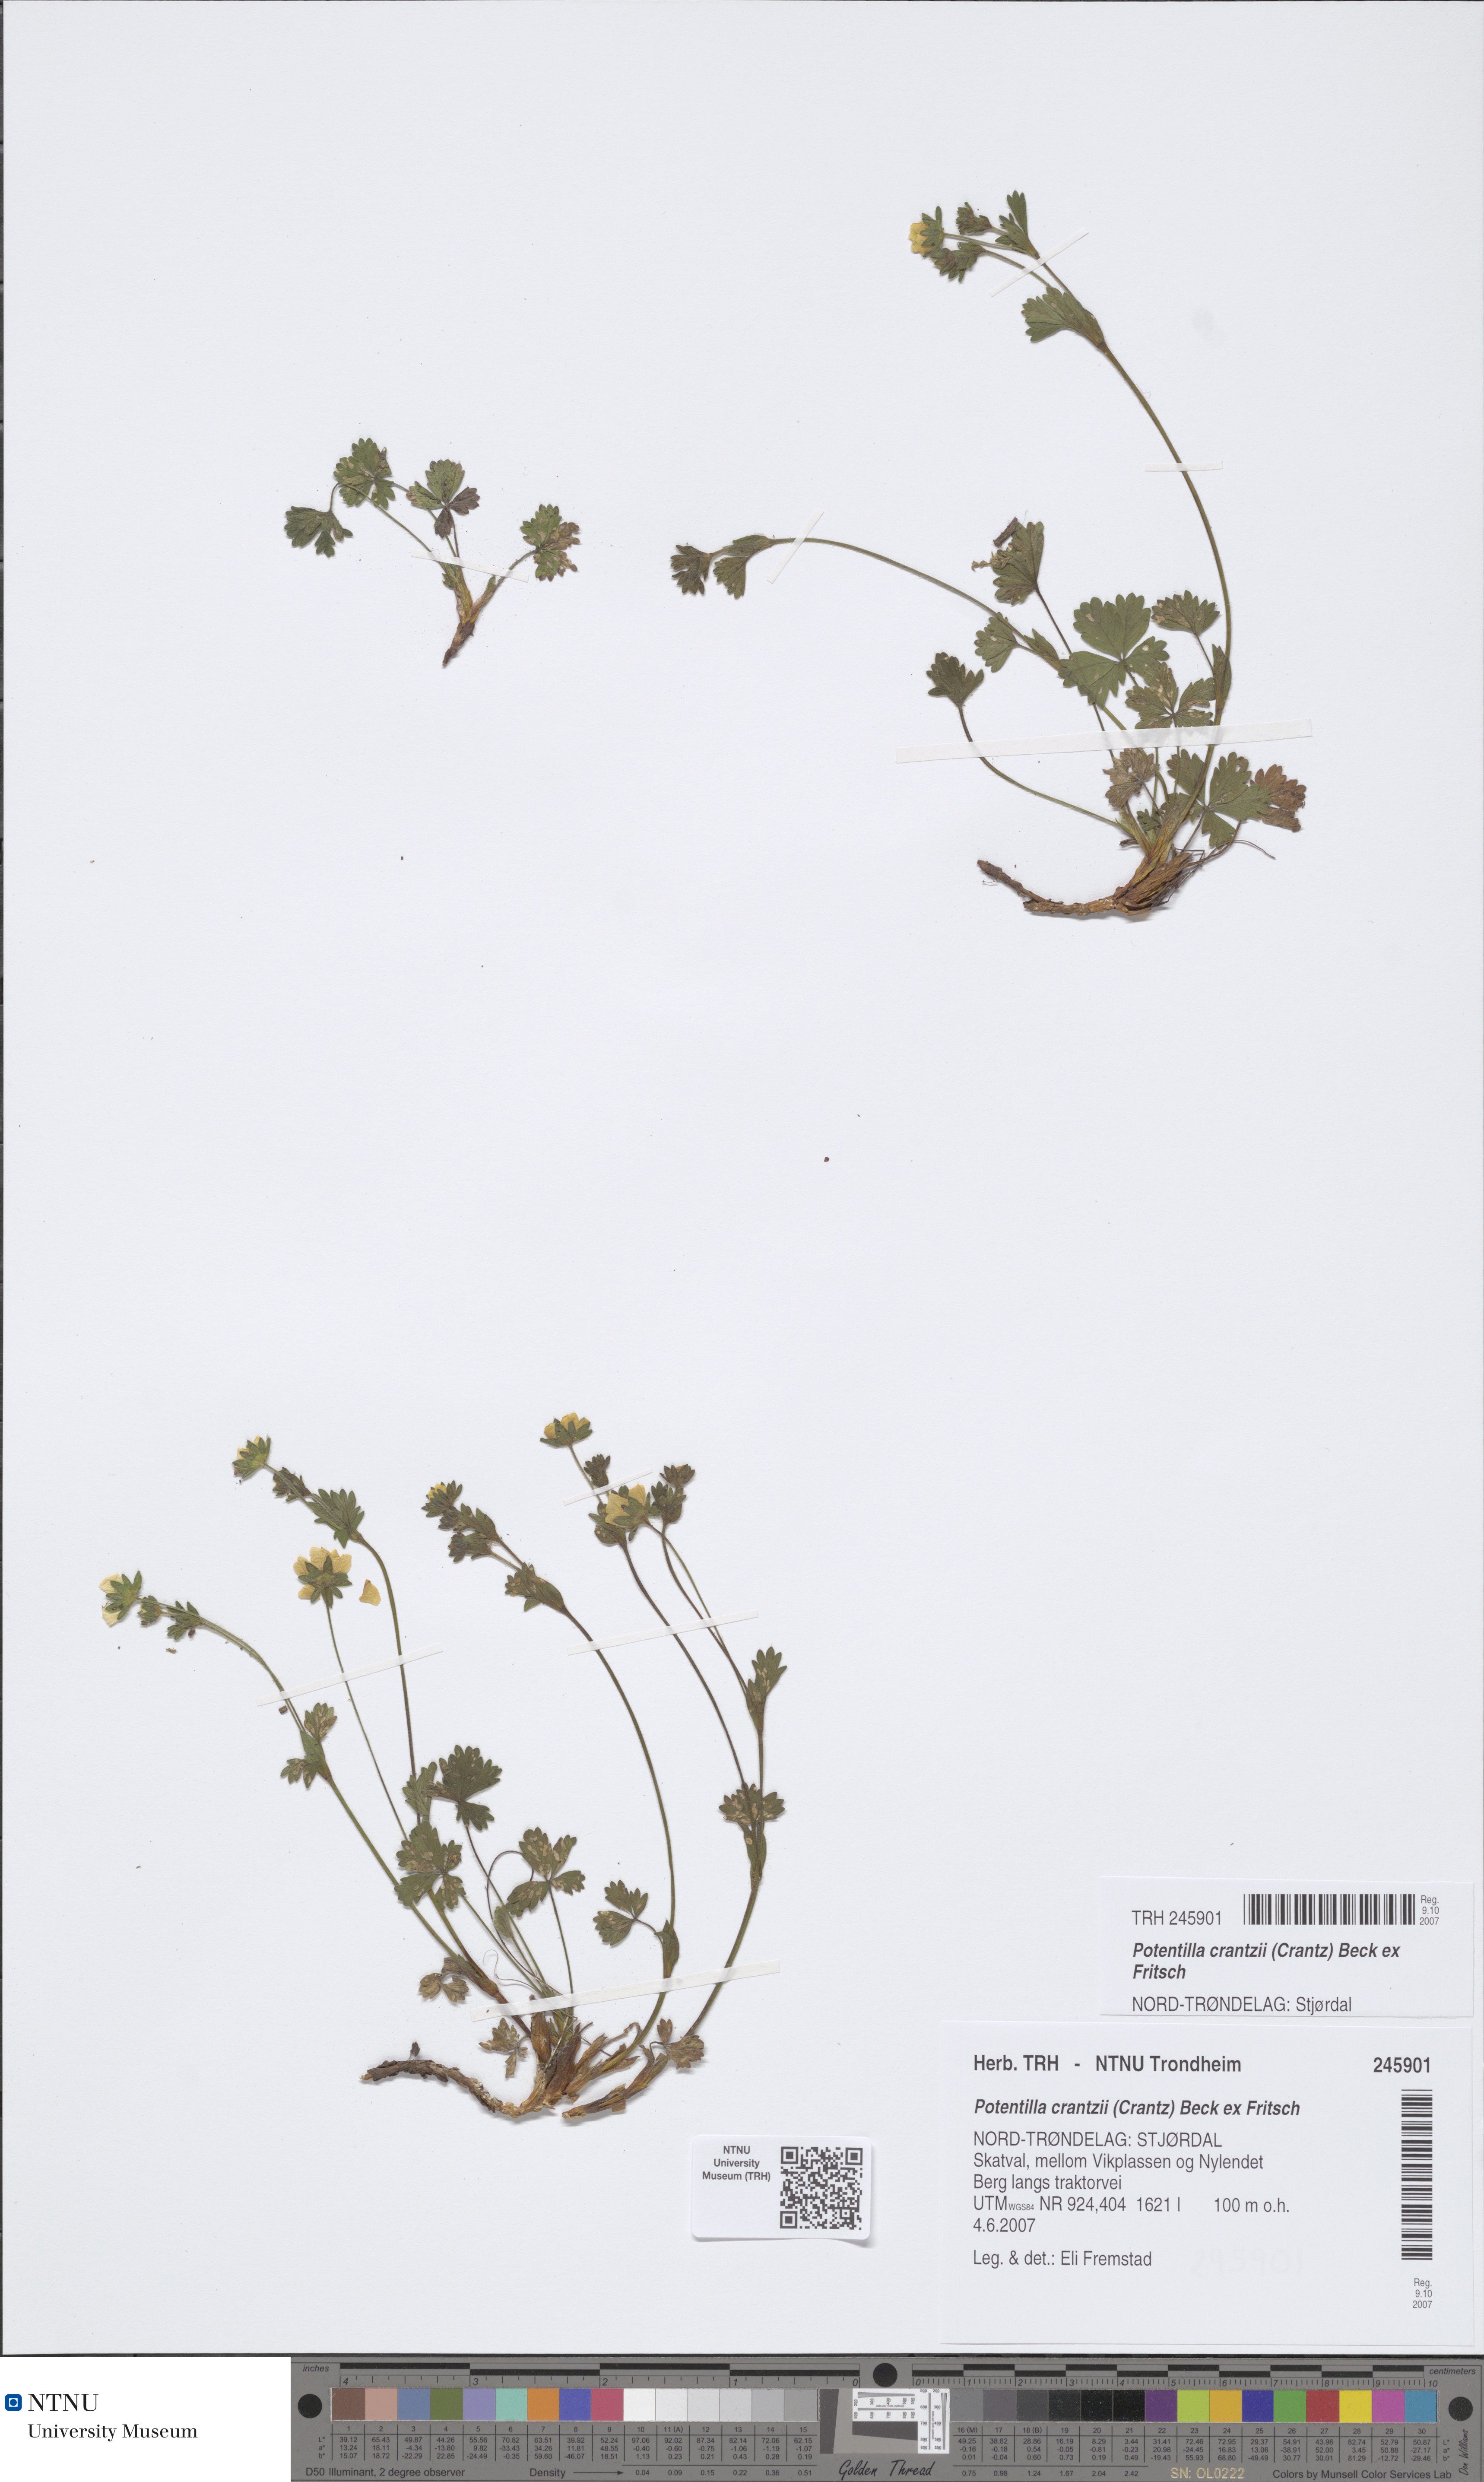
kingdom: Plantae
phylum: Tracheophyta
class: Magnoliopsida
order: Rosales
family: Rosaceae
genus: Potentilla
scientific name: Potentilla crantzii
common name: Alpine cinquefoil
